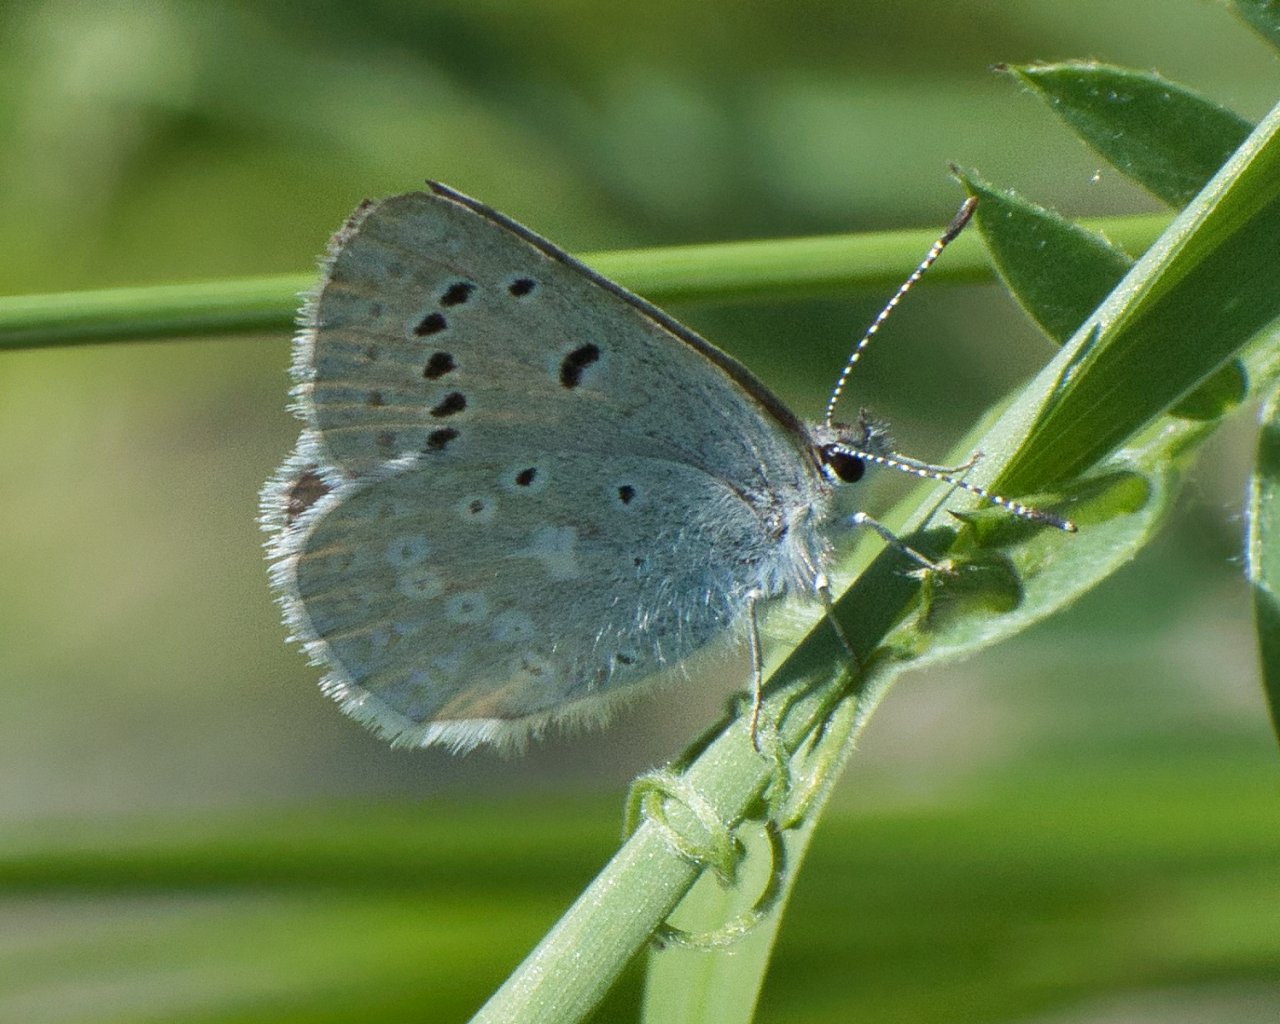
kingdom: Animalia
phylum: Arthropoda
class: Insecta
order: Lepidoptera
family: Lycaenidae
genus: Icaricia
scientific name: Icaricia icarioides
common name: Boisduval's Blue
